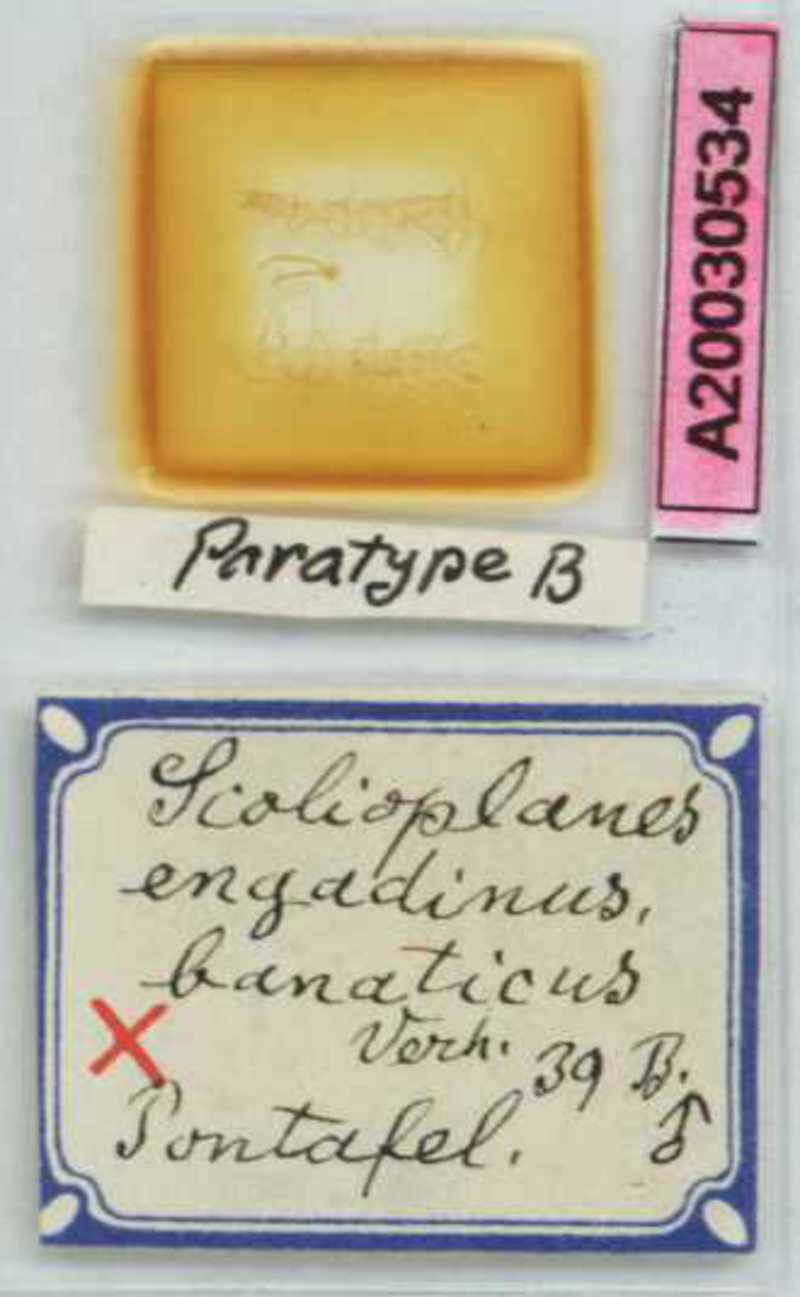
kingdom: Animalia
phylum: Arthropoda
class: Chilopoda
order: Geophilomorpha
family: Linotaeniidae
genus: Strigamia
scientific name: Strigamia engadina
